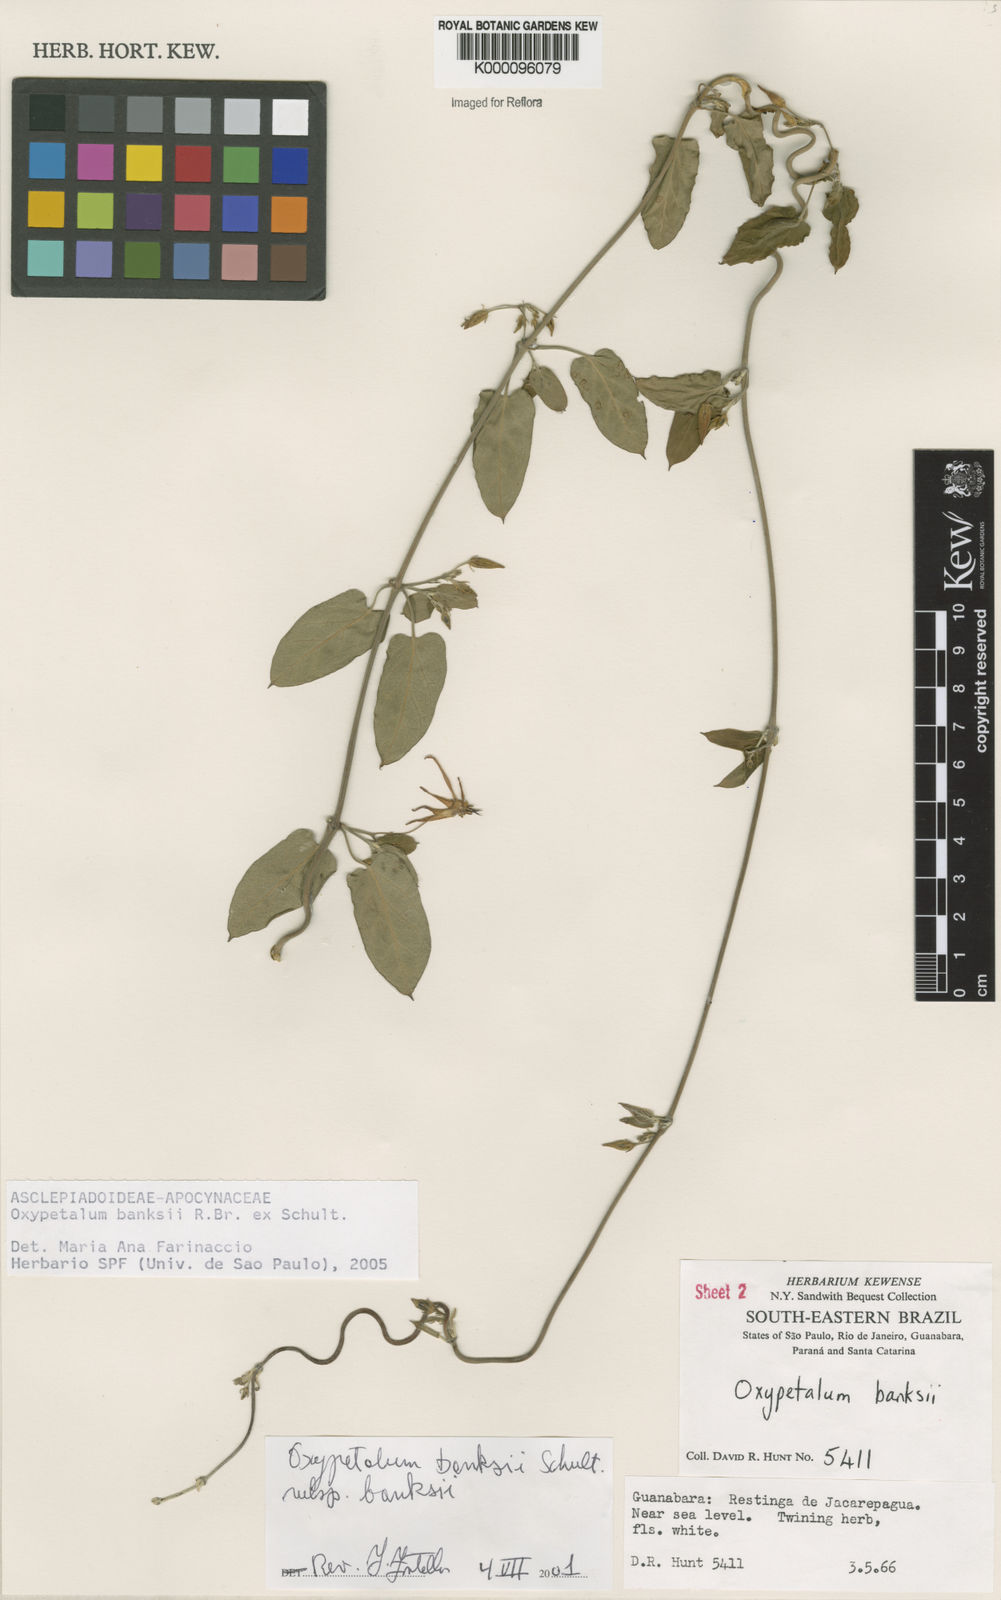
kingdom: Plantae
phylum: Tracheophyta
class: Magnoliopsida
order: Gentianales
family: Apocynaceae
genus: Oxypetalum
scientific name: Oxypetalum banksii
